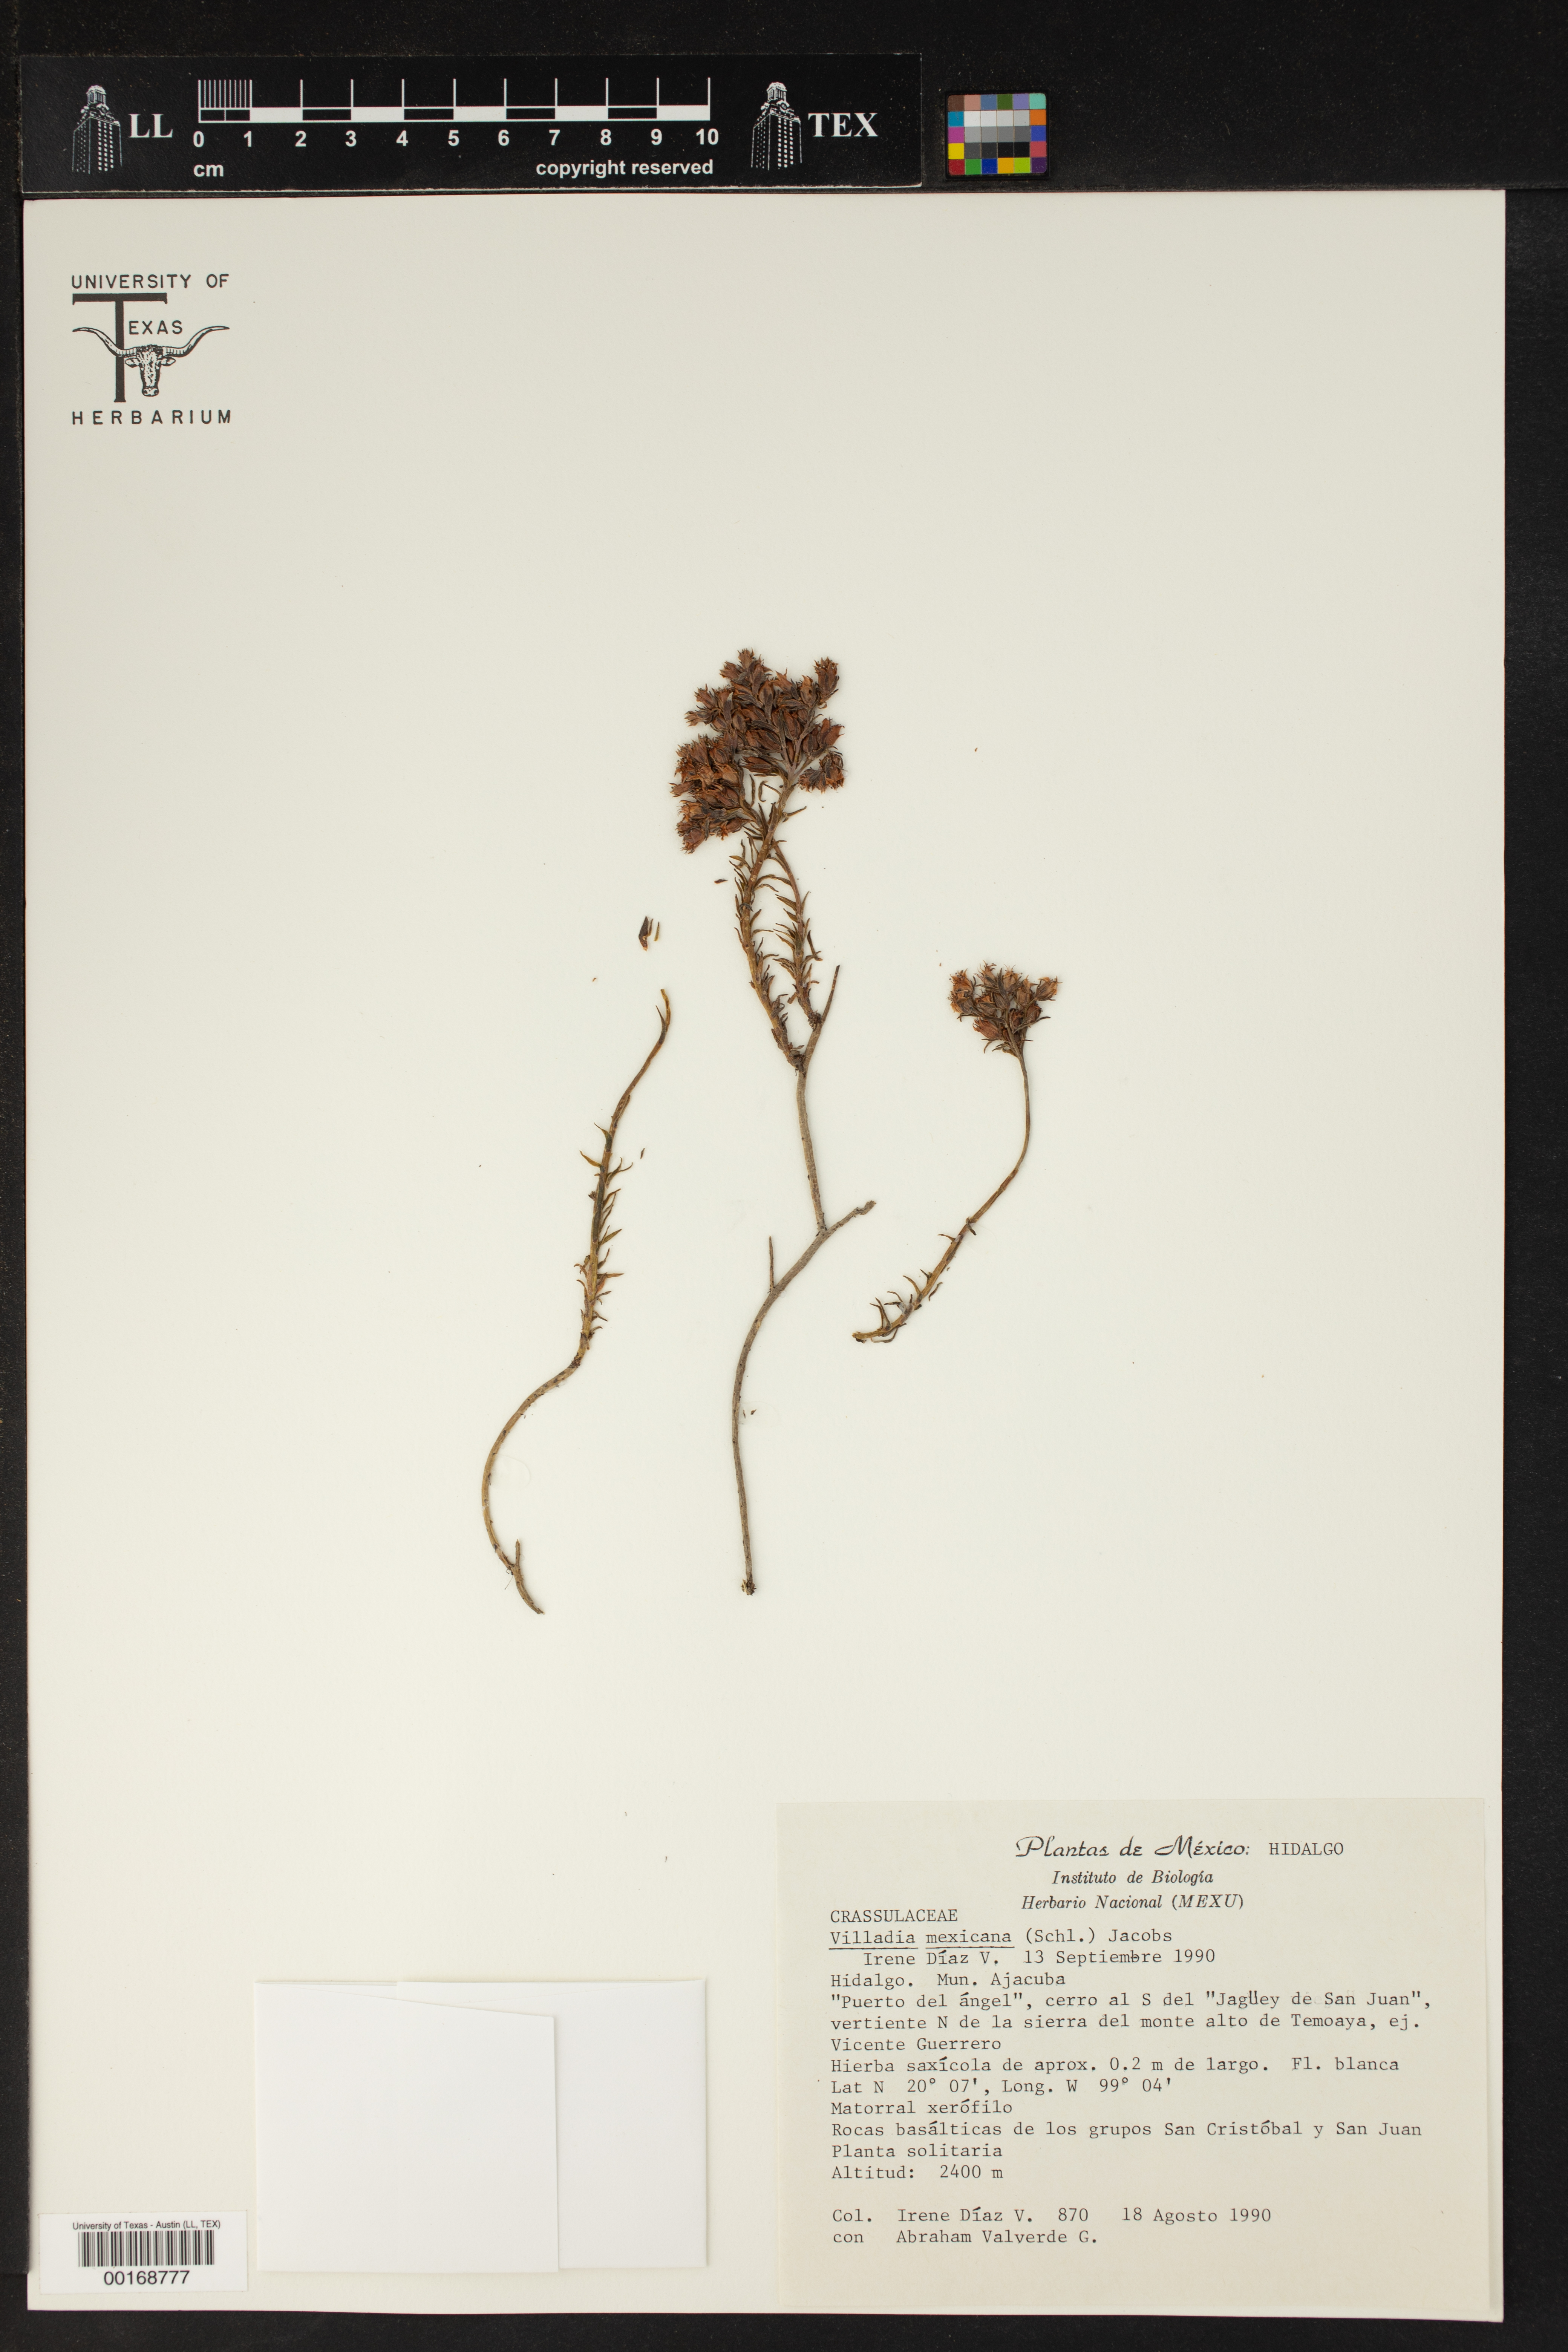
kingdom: Plantae
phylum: Tracheophyta
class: Magnoliopsida
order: Saxifragales
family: Crassulaceae
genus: Sedum
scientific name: Sedum goldmanii
